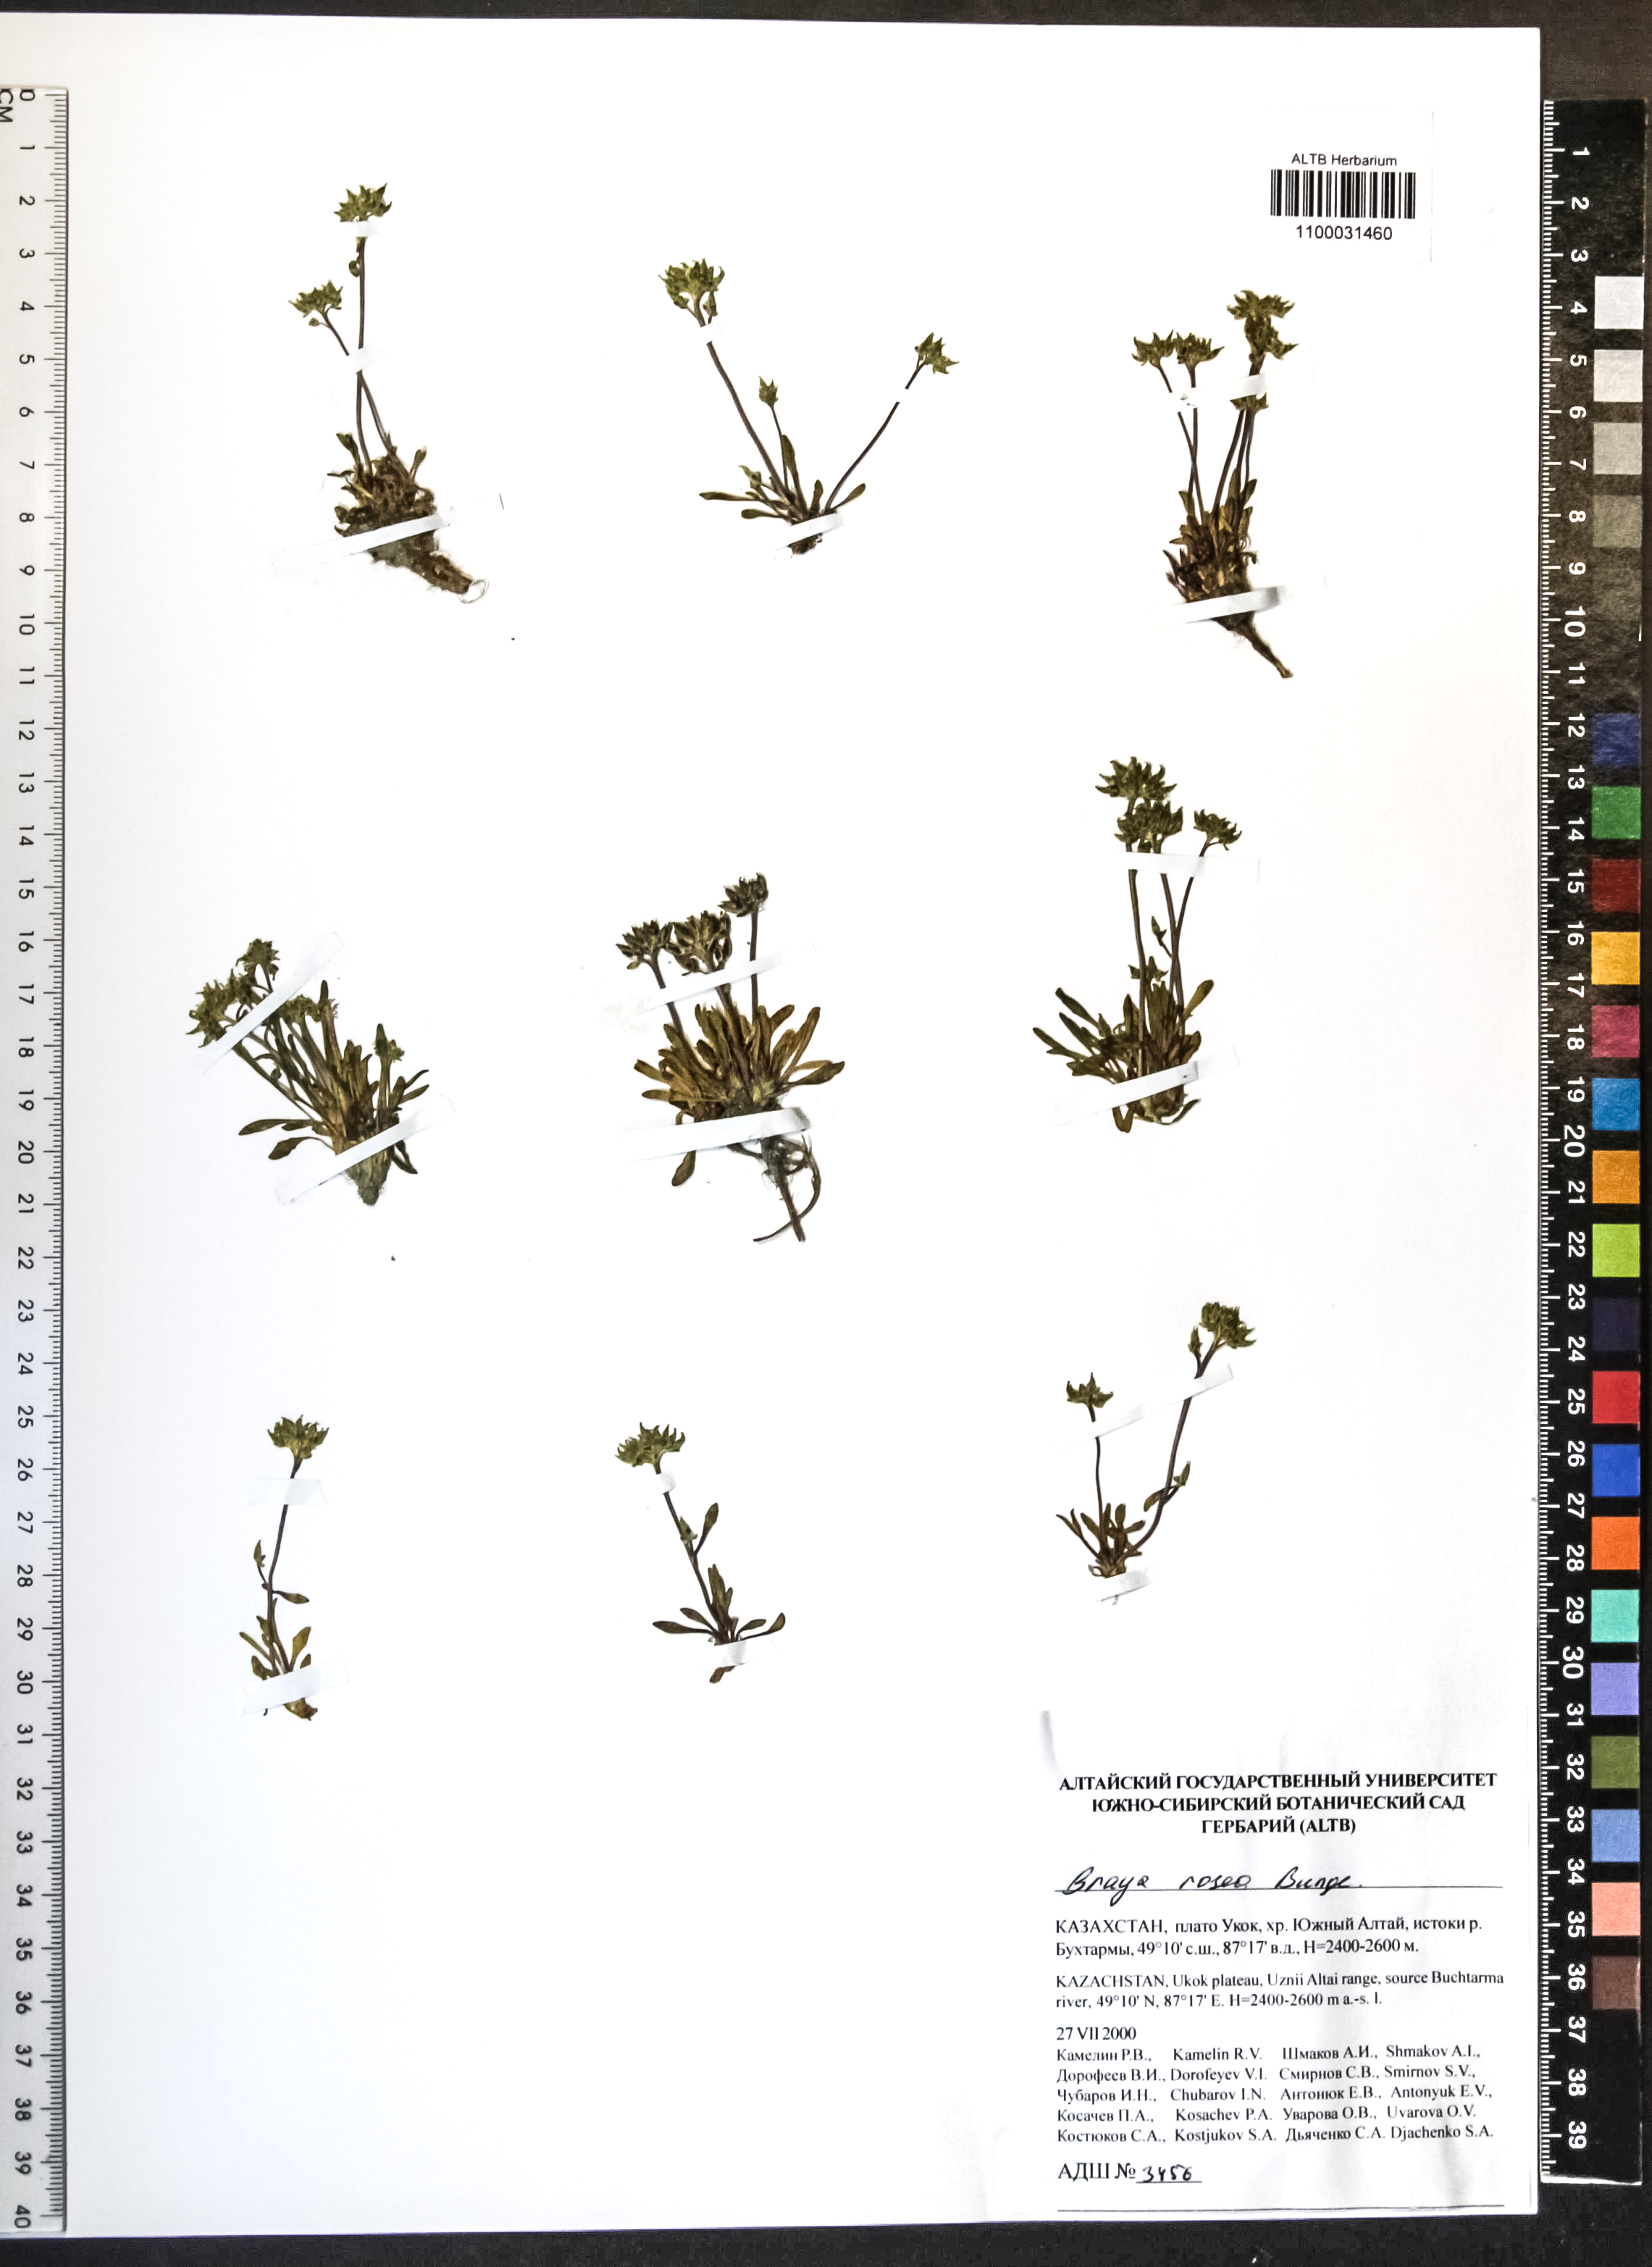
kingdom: Plantae
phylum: Tracheophyta
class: Magnoliopsida
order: Brassicales
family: Brassicaceae
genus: Braya
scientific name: Braya rosea
